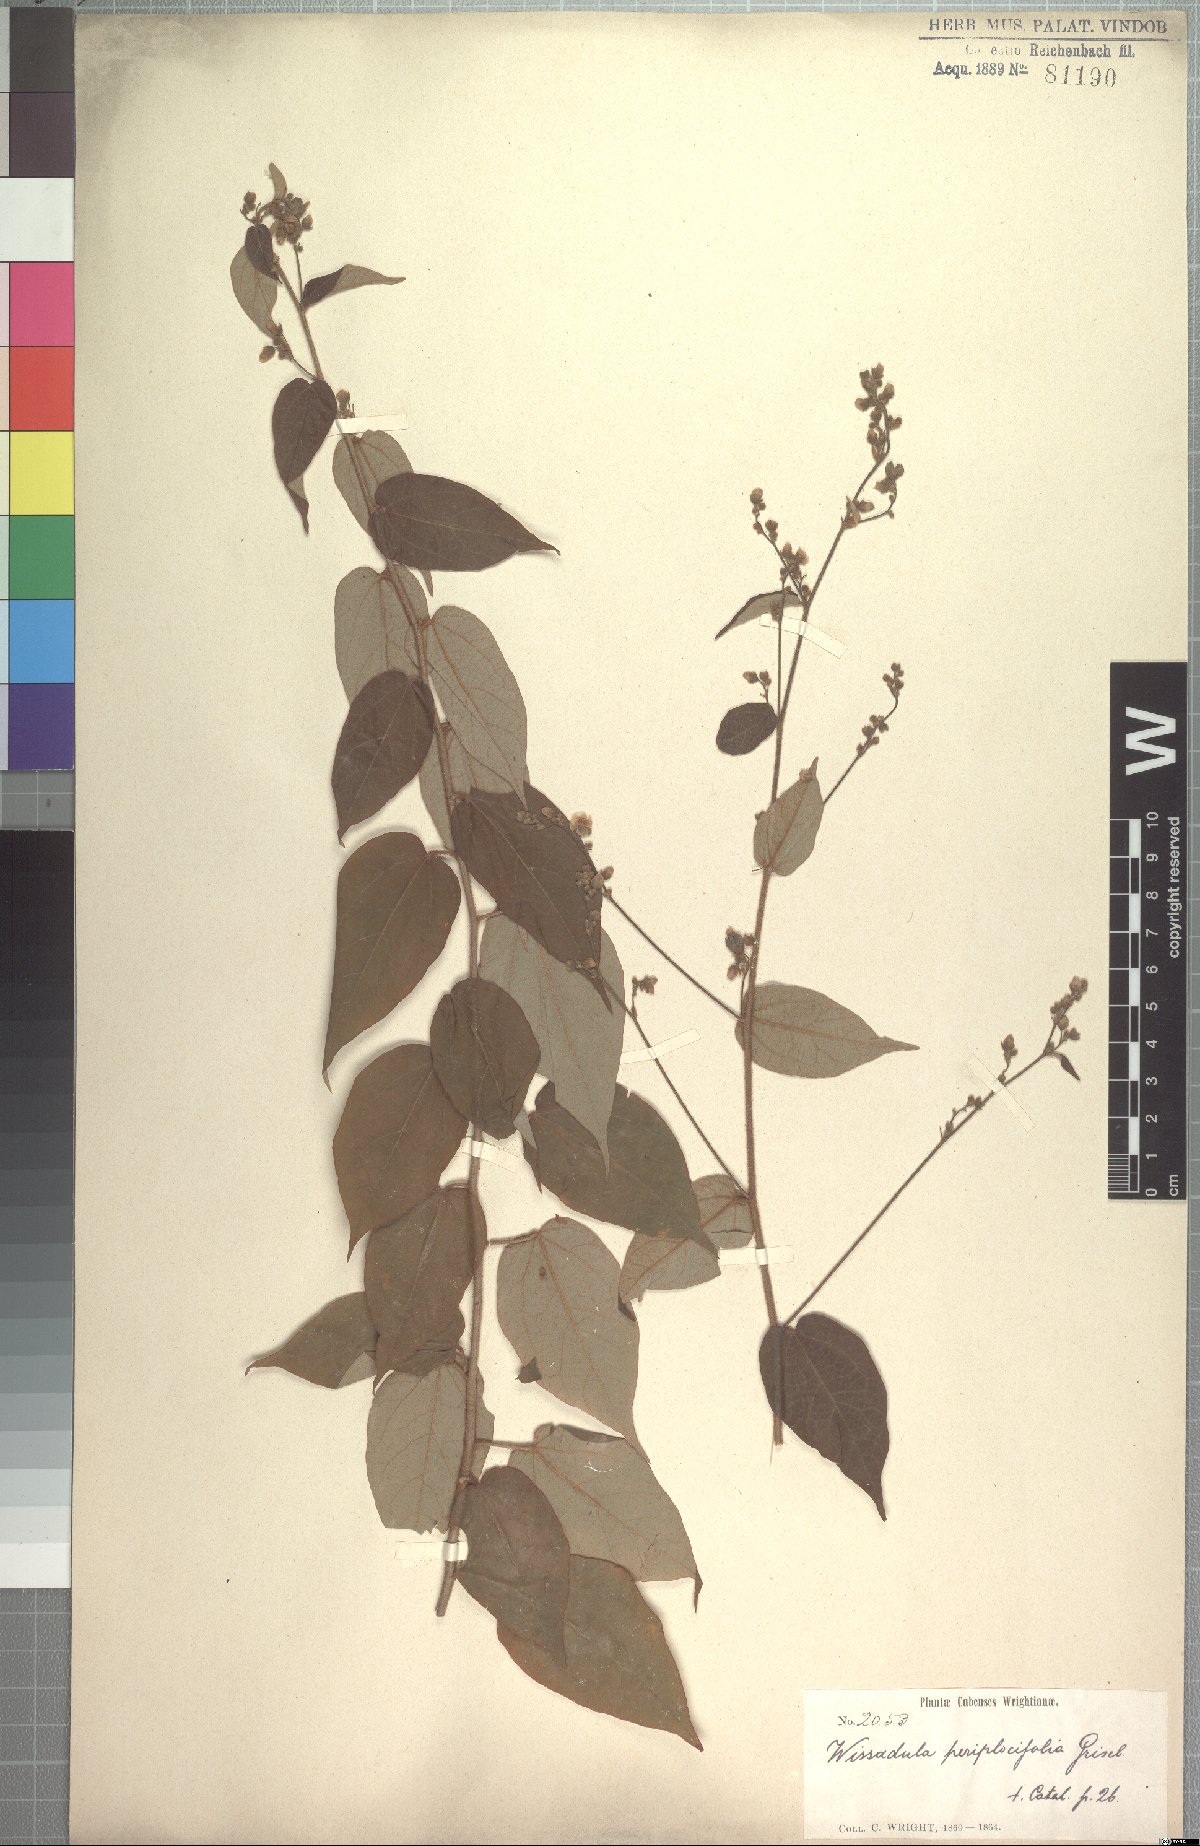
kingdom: Plantae
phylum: Tracheophyta
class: Magnoliopsida
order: Malvales
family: Malvaceae
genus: Wissadula
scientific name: Wissadula periplocifolia
